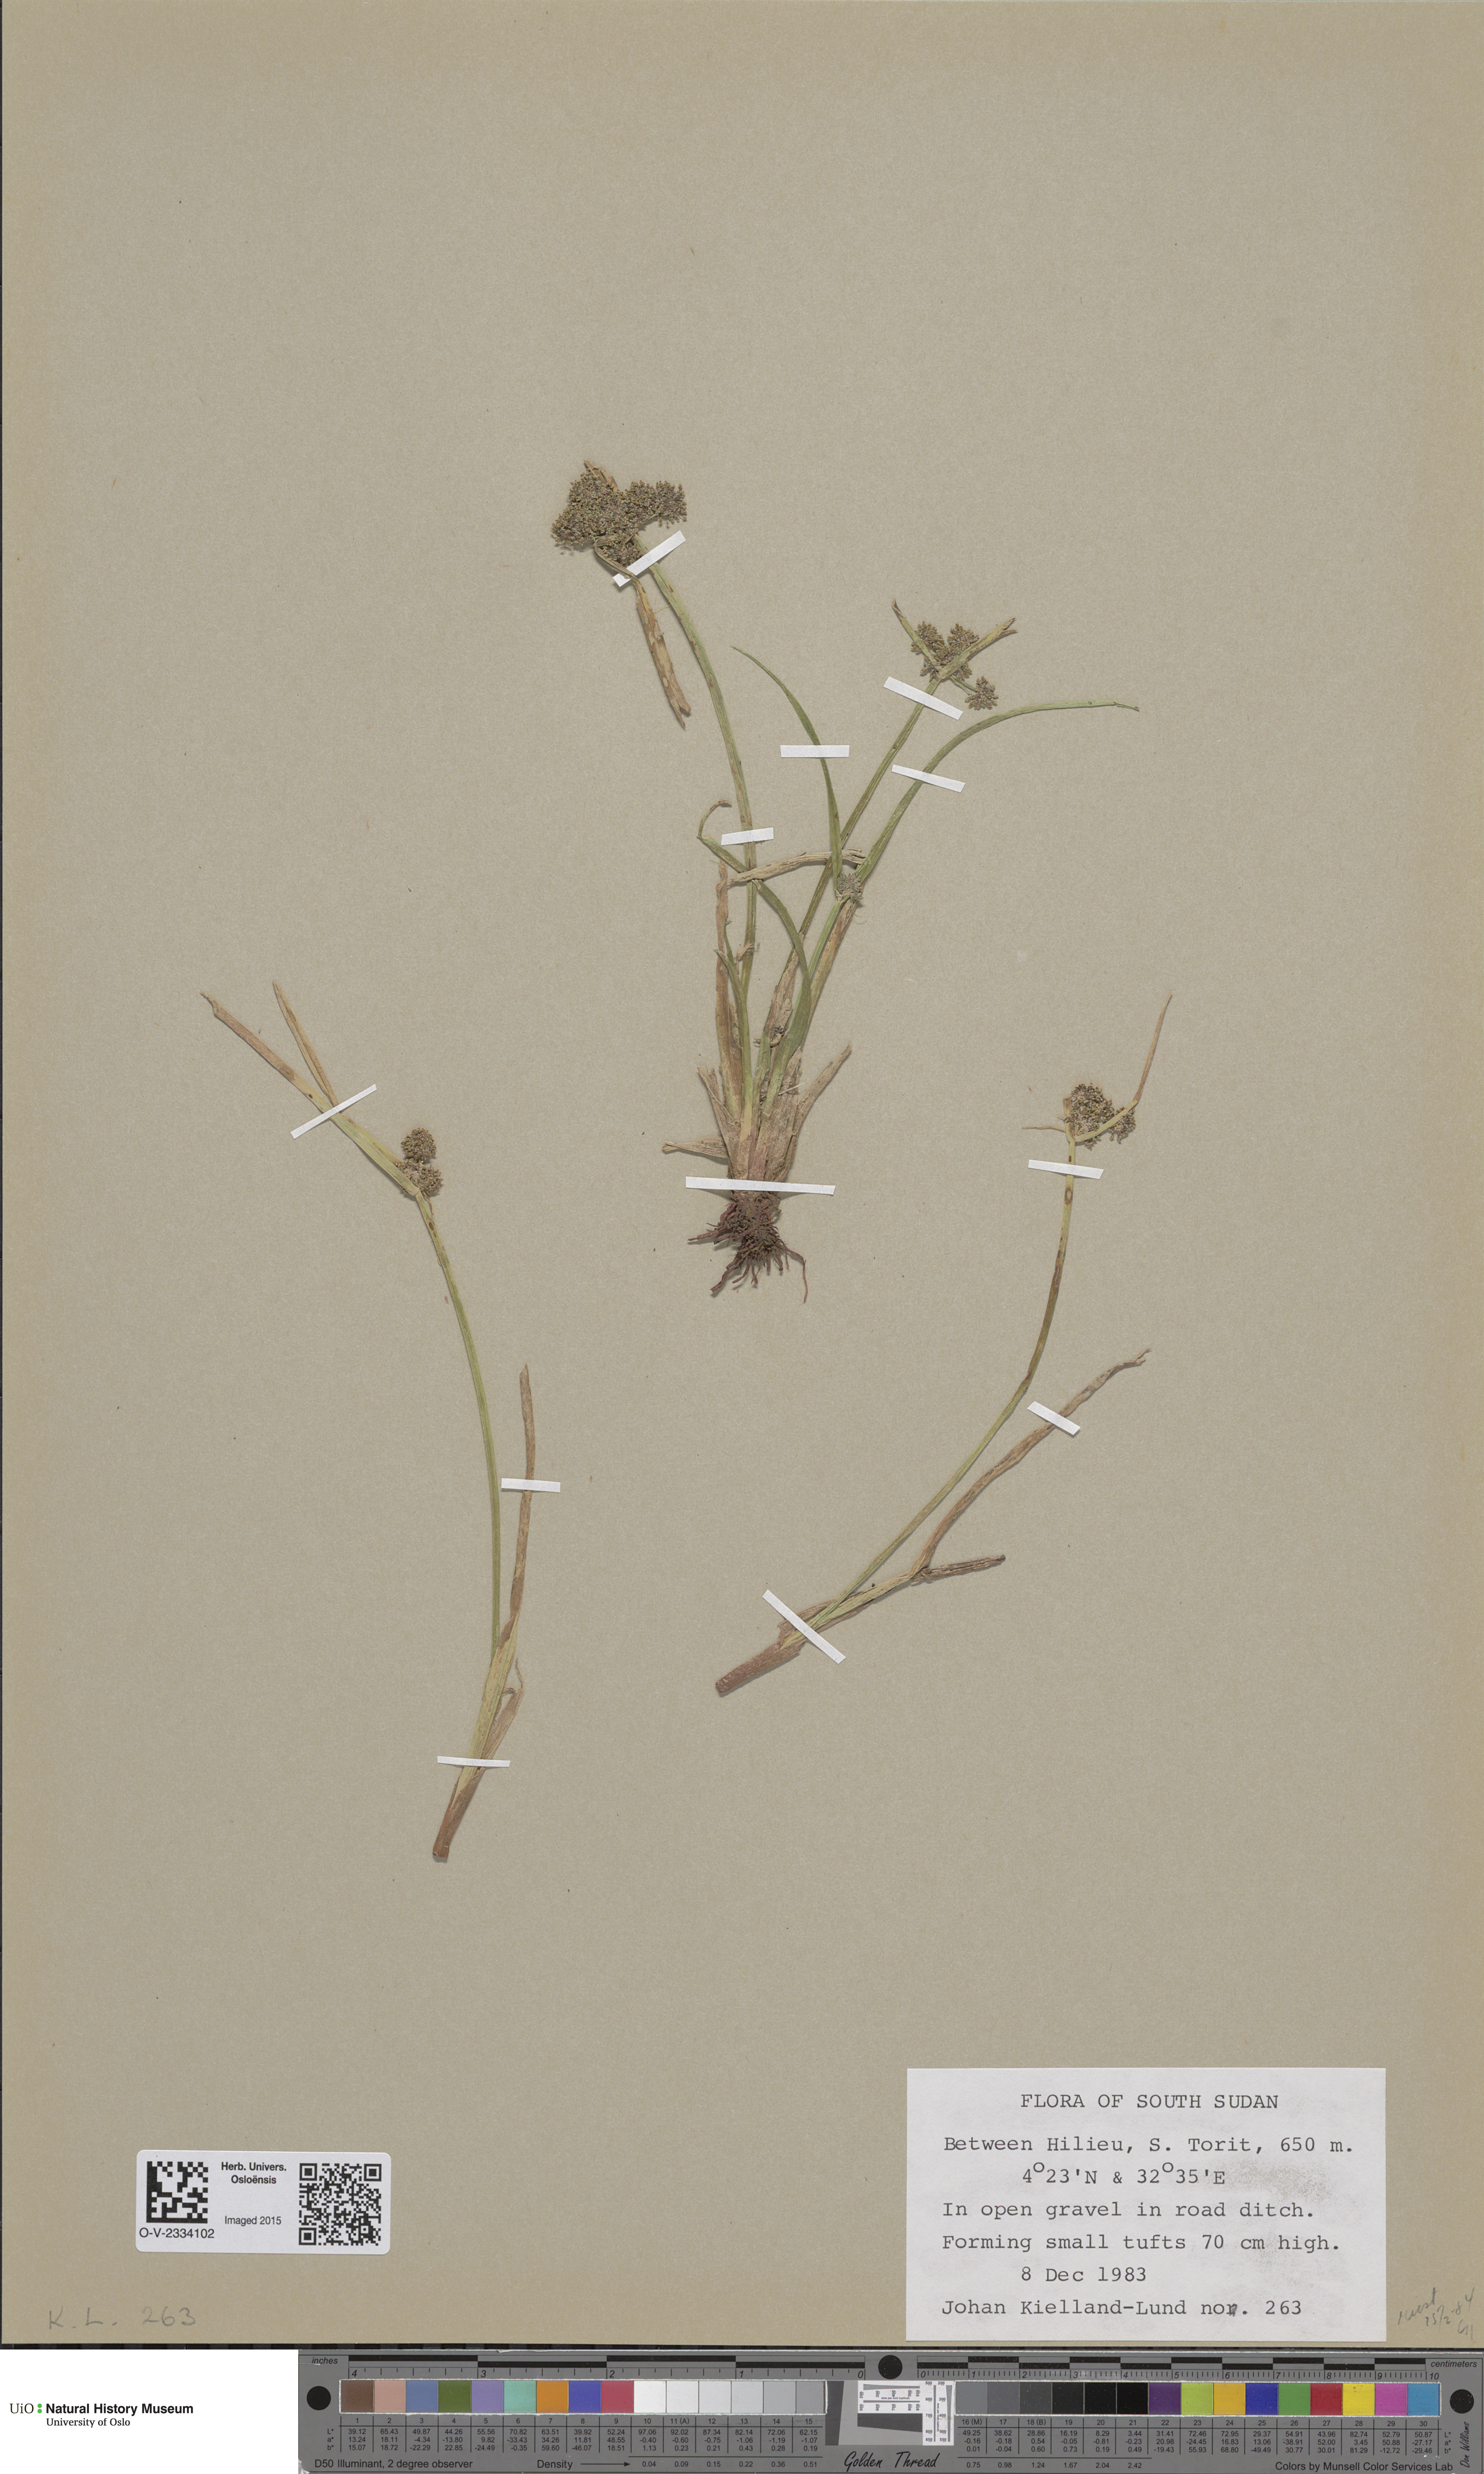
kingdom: Plantae
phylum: Tracheophyta
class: Magnoliopsida
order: Saxifragales
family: Saxifragaceae
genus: Saxifraga
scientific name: Saxifraga cespitosa
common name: Tufted saxifrage
